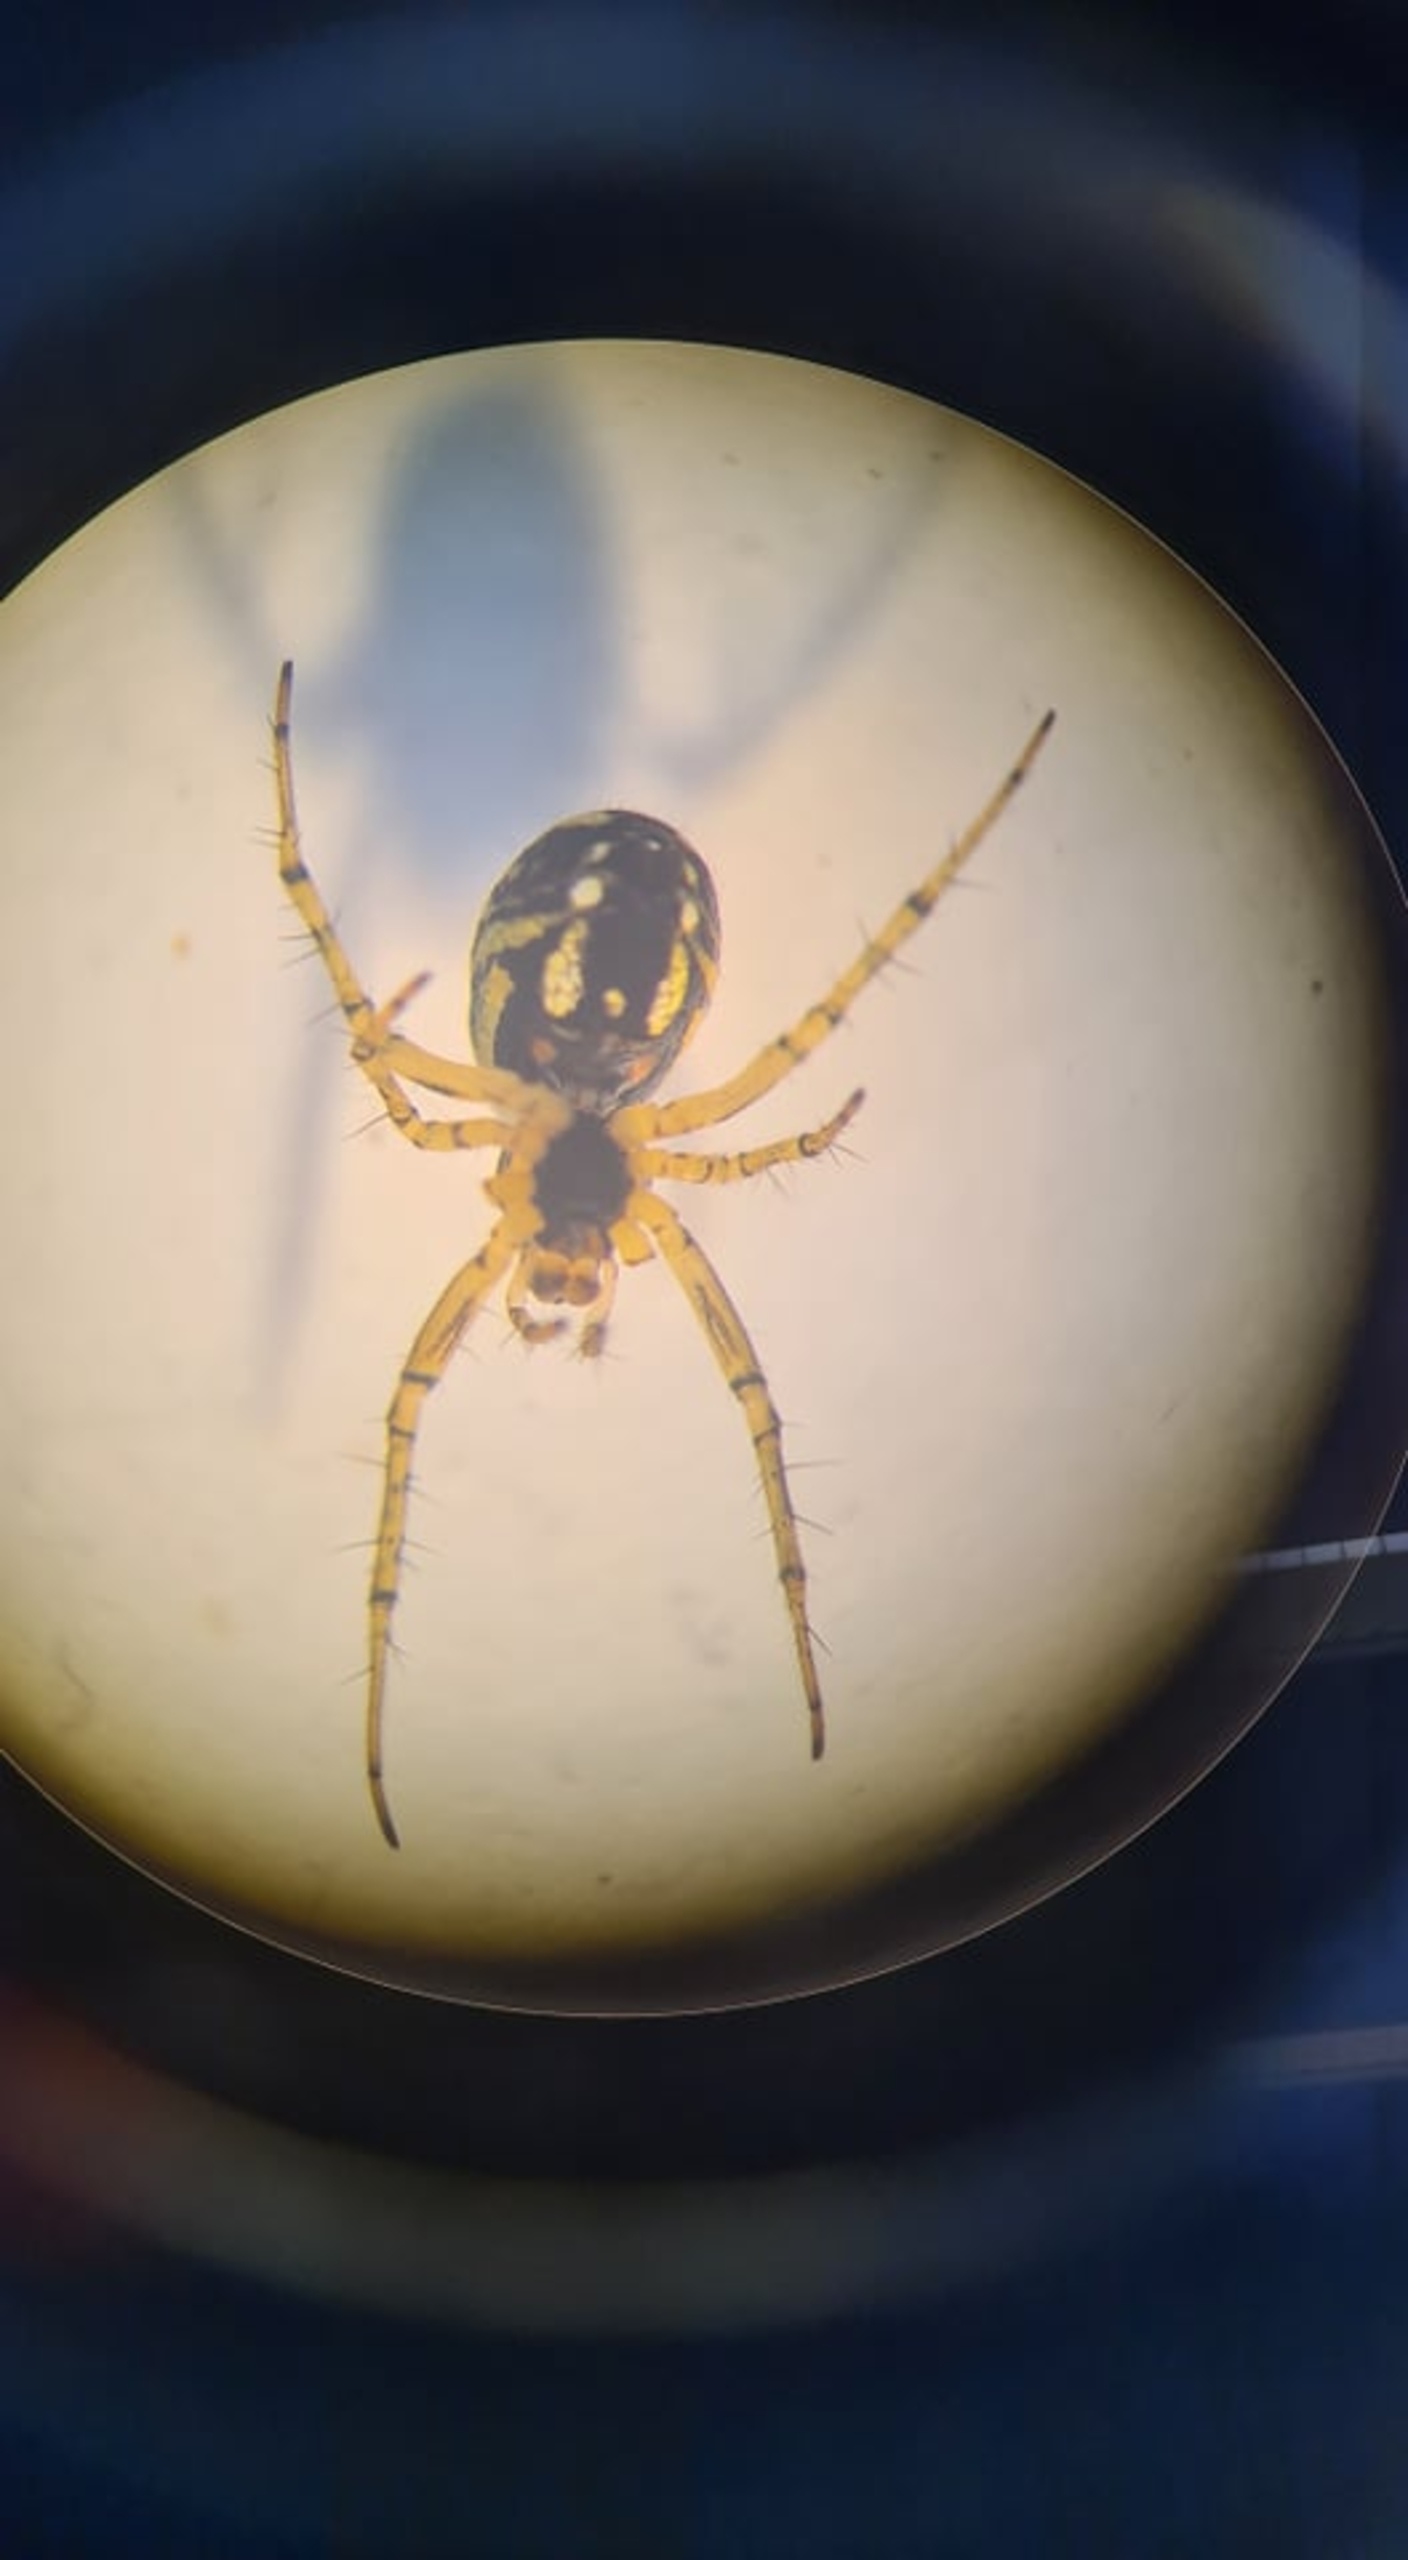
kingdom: Animalia
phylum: Arthropoda
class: Arachnida
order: Araneae
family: Araneidae
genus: Mangora
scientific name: Mangora acalypha
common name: Sortstribet hedehjulspinder
